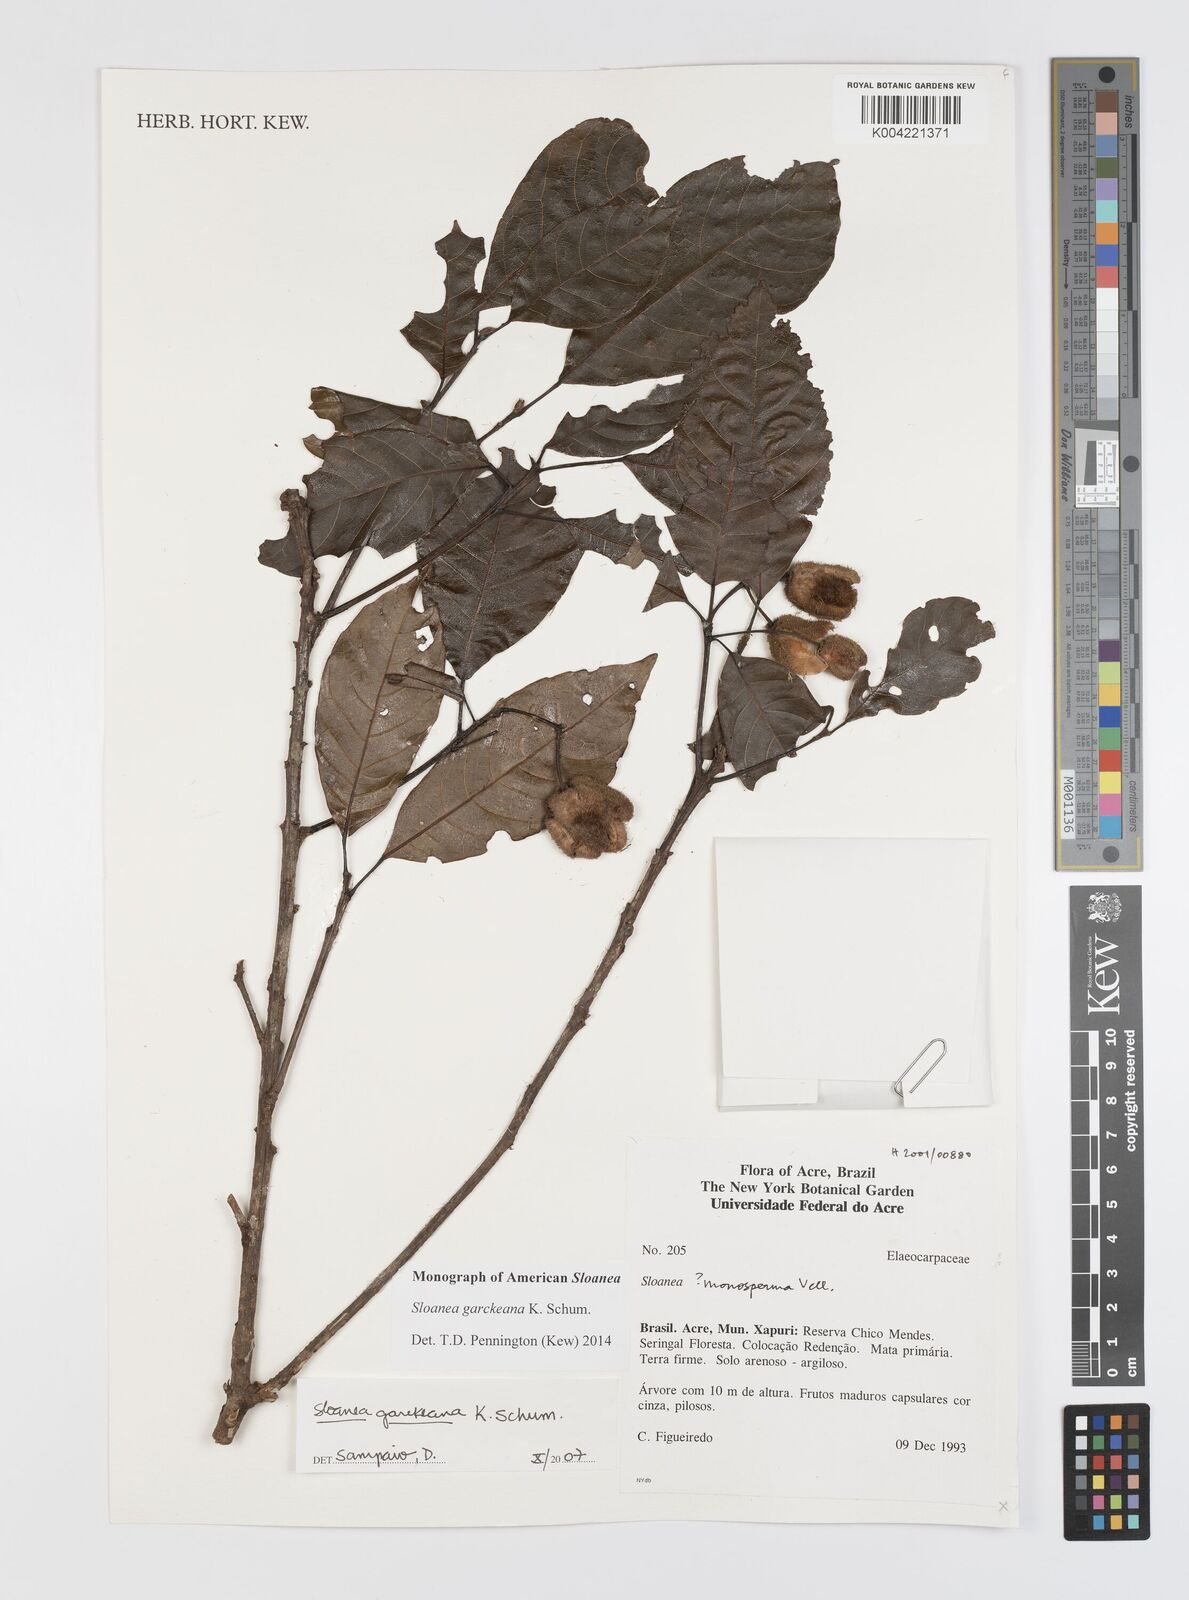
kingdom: Plantae
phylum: Tracheophyta
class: Magnoliopsida
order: Oxalidales
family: Elaeocarpaceae
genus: Sloanea
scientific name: Sloanea garckeana
